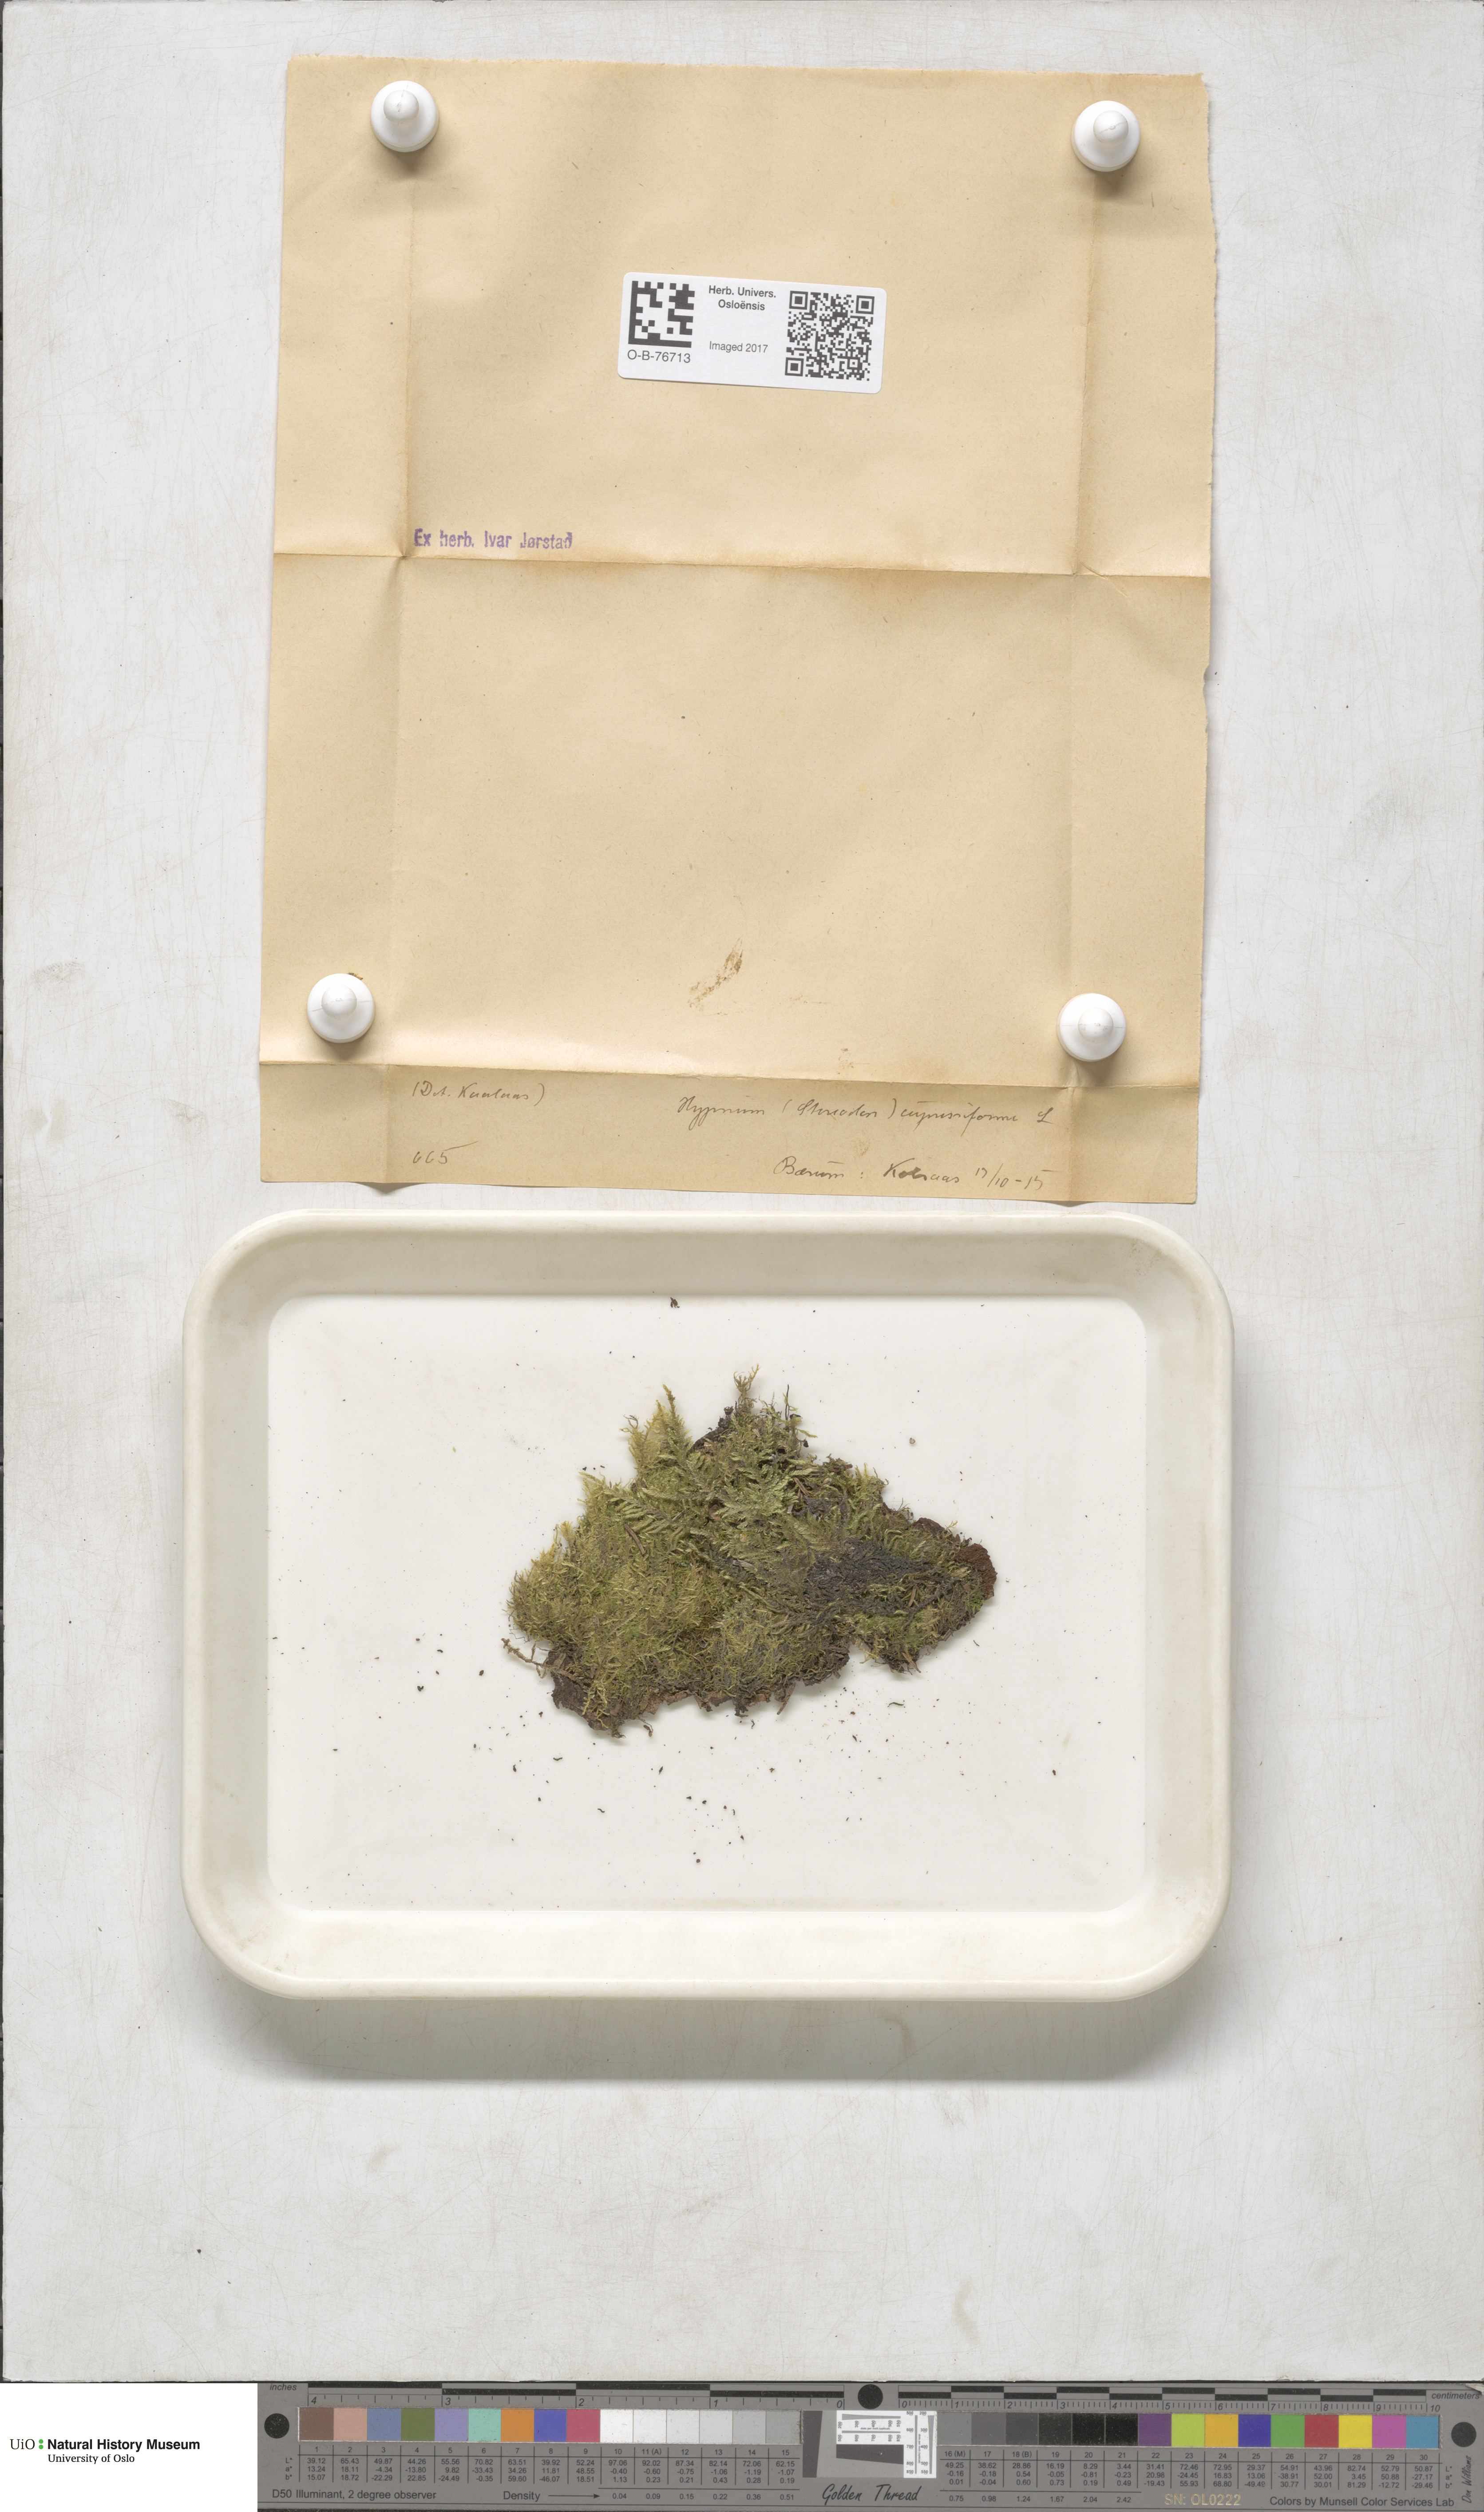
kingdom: Plantae
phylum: Bryophyta
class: Bryopsida
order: Hypnales
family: Hypnaceae
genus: Hypnum
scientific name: Hypnum cupressiforme
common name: Cypress-leaved plait-moss
